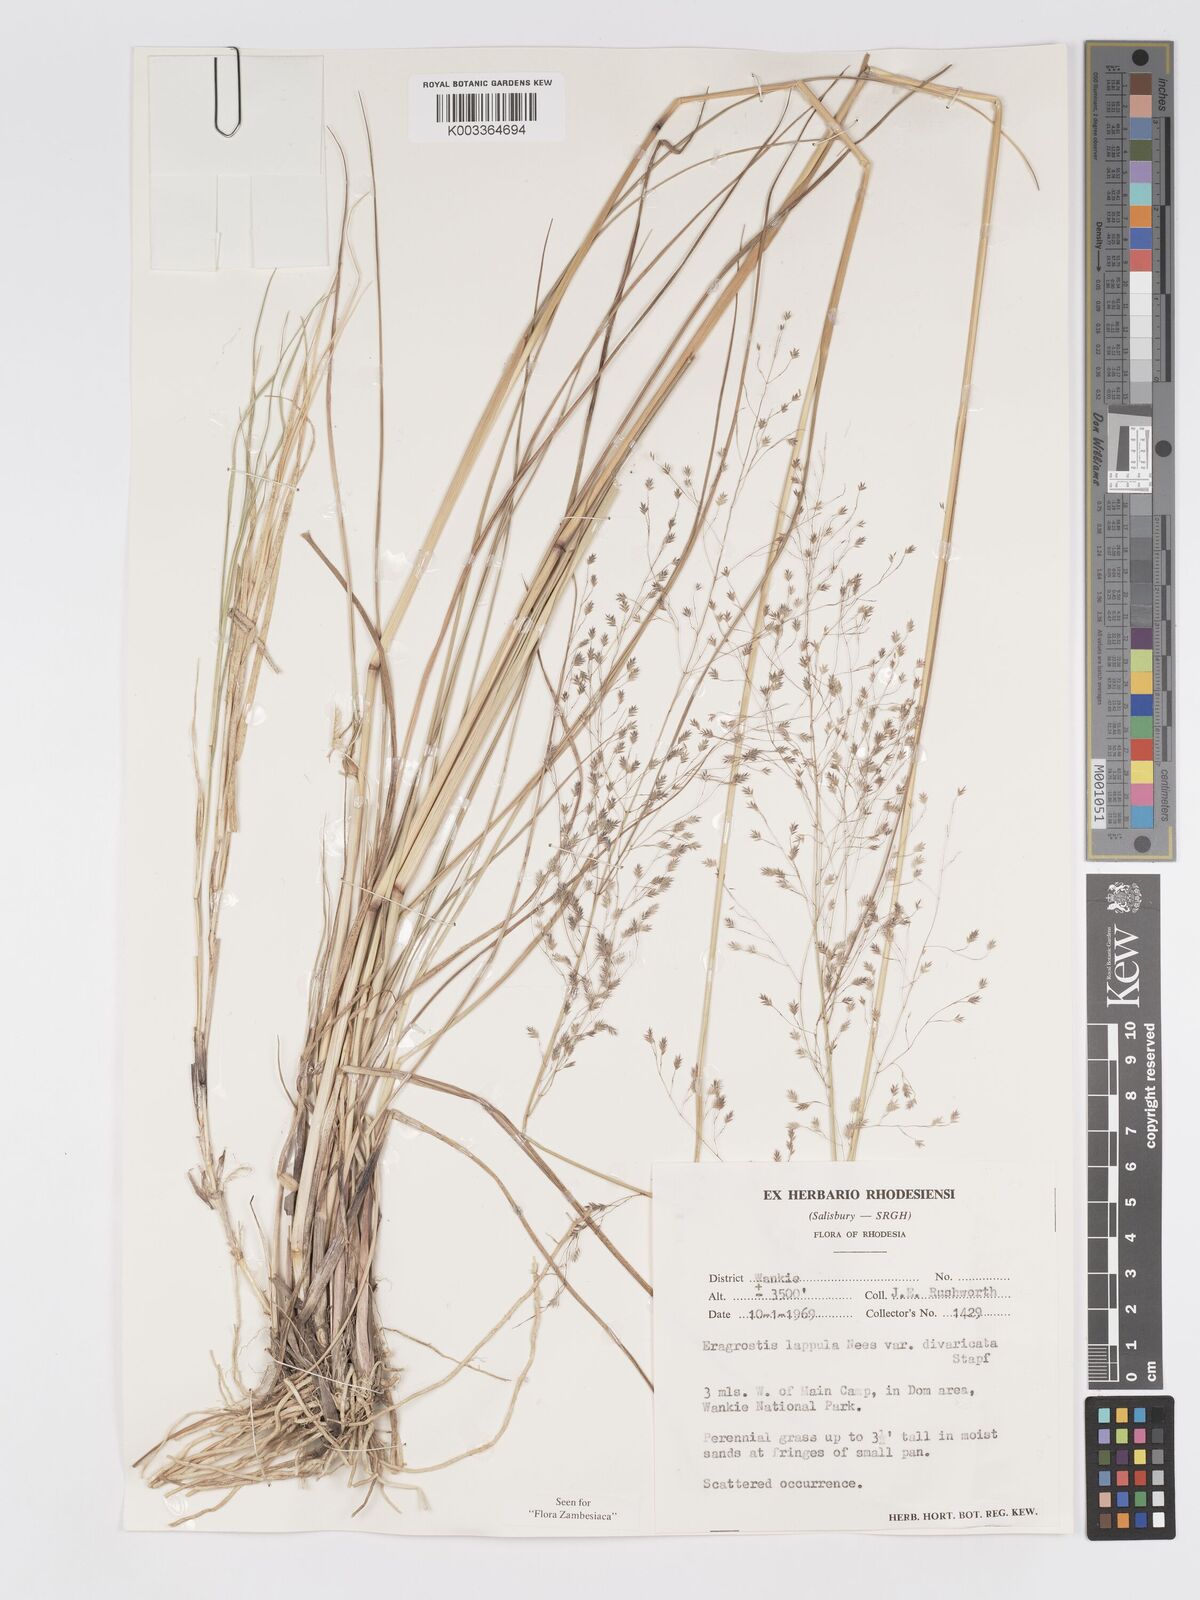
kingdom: Plantae
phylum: Tracheophyta
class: Liliopsida
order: Poales
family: Poaceae
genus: Eragrostis
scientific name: Eragrostis lappula
